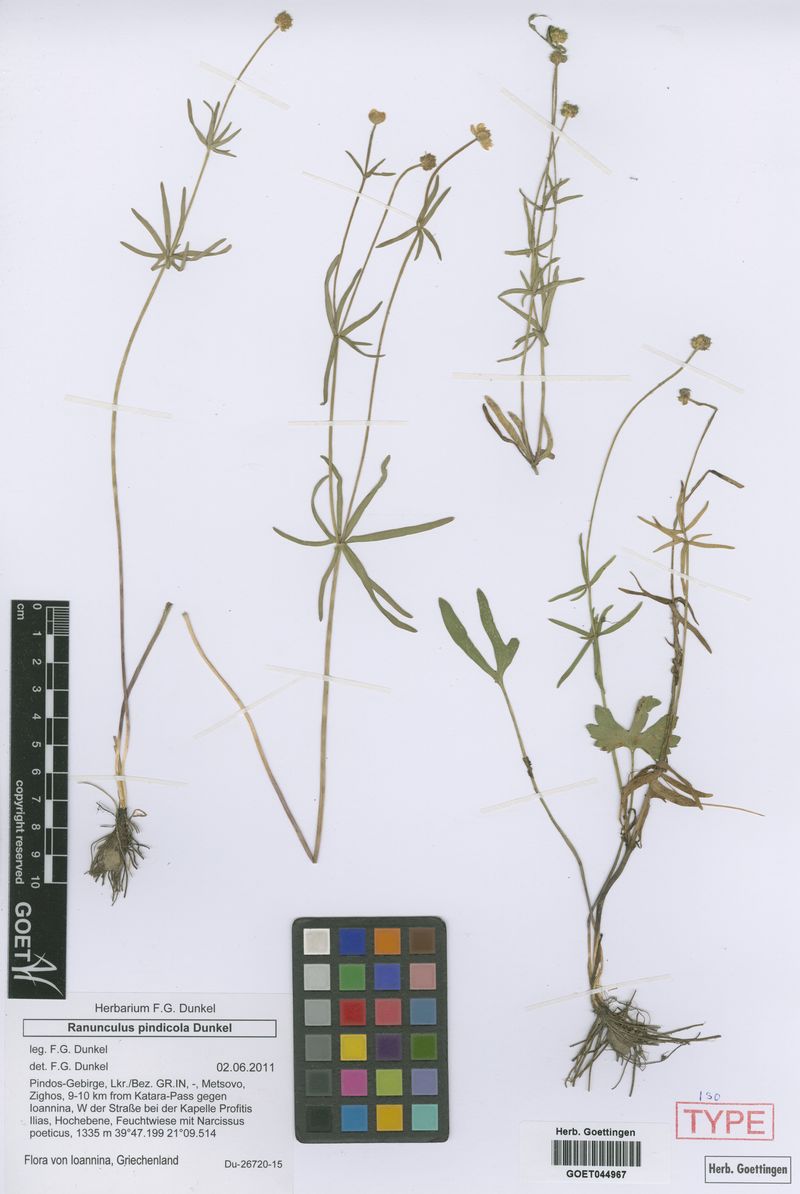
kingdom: Plantae
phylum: Tracheophyta
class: Magnoliopsida
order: Ranunculales
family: Ranunculaceae
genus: Ranunculus
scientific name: Ranunculus pindicola
